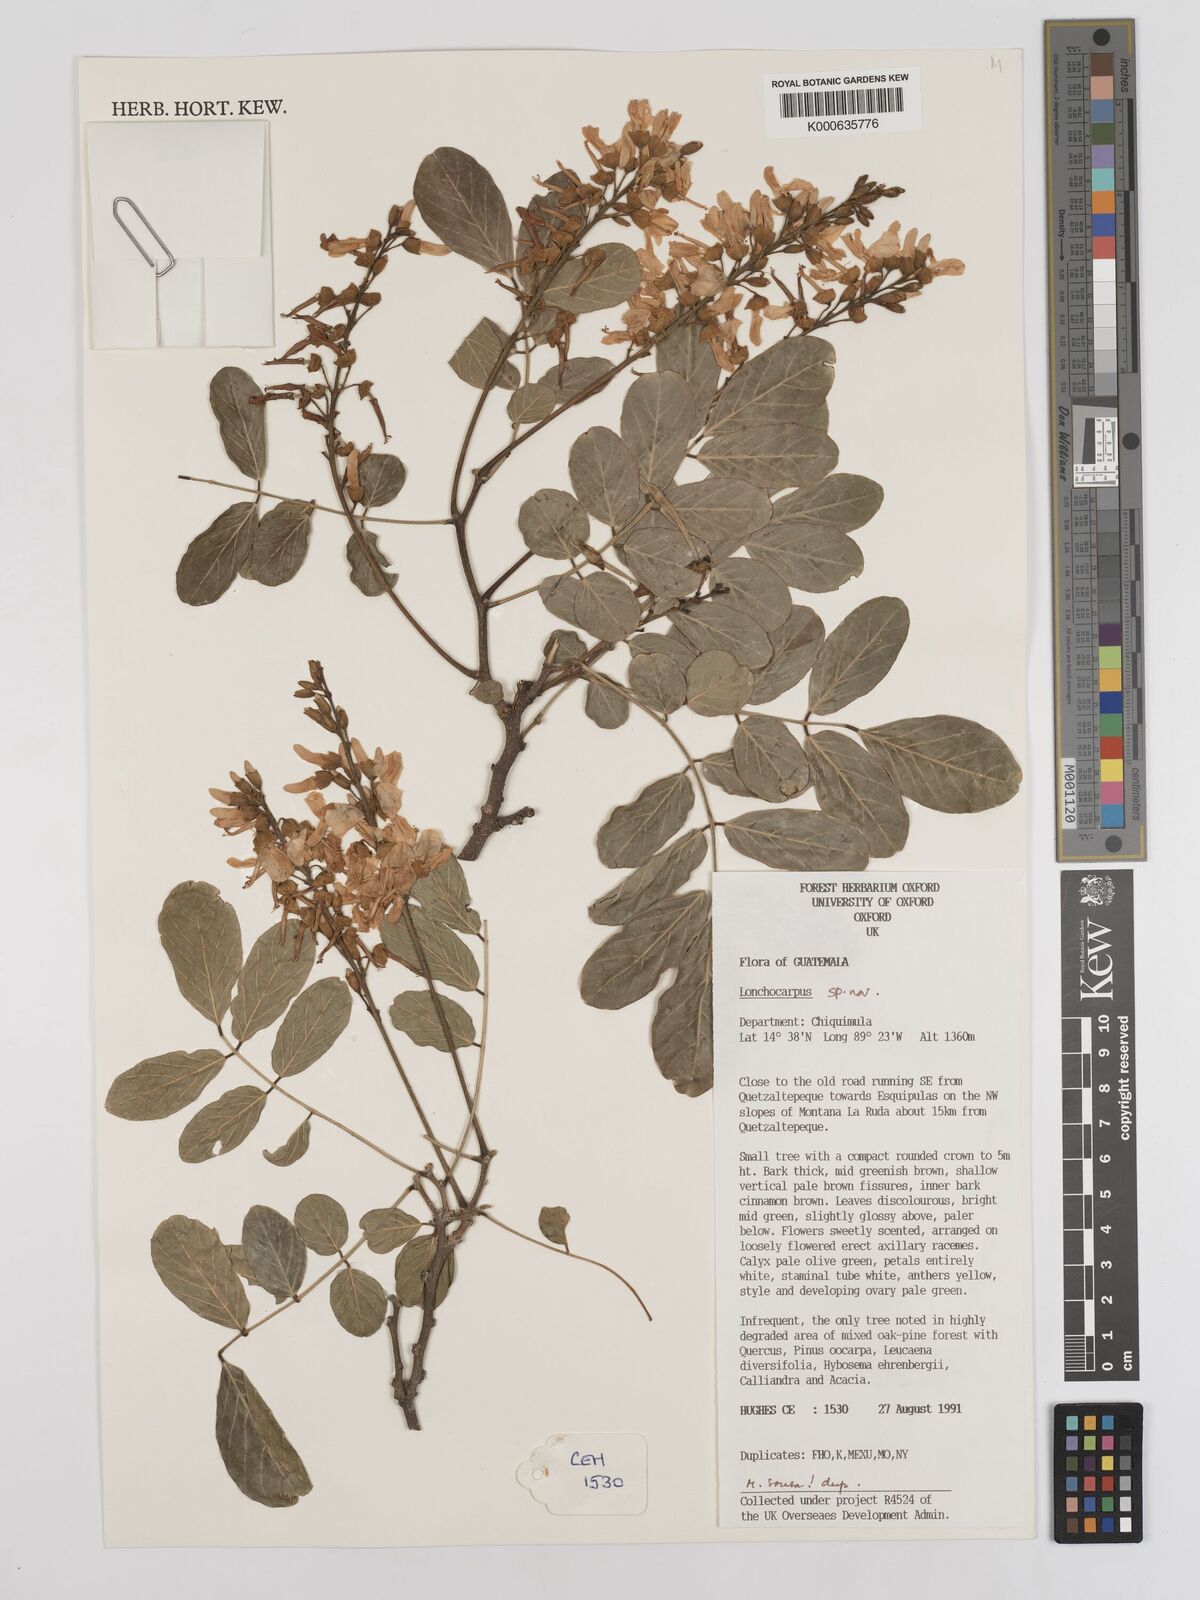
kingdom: Plantae
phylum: Tracheophyta
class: Magnoliopsida
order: Fabales
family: Fabaceae
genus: Lonchocarpus
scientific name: Lonchocarpus
